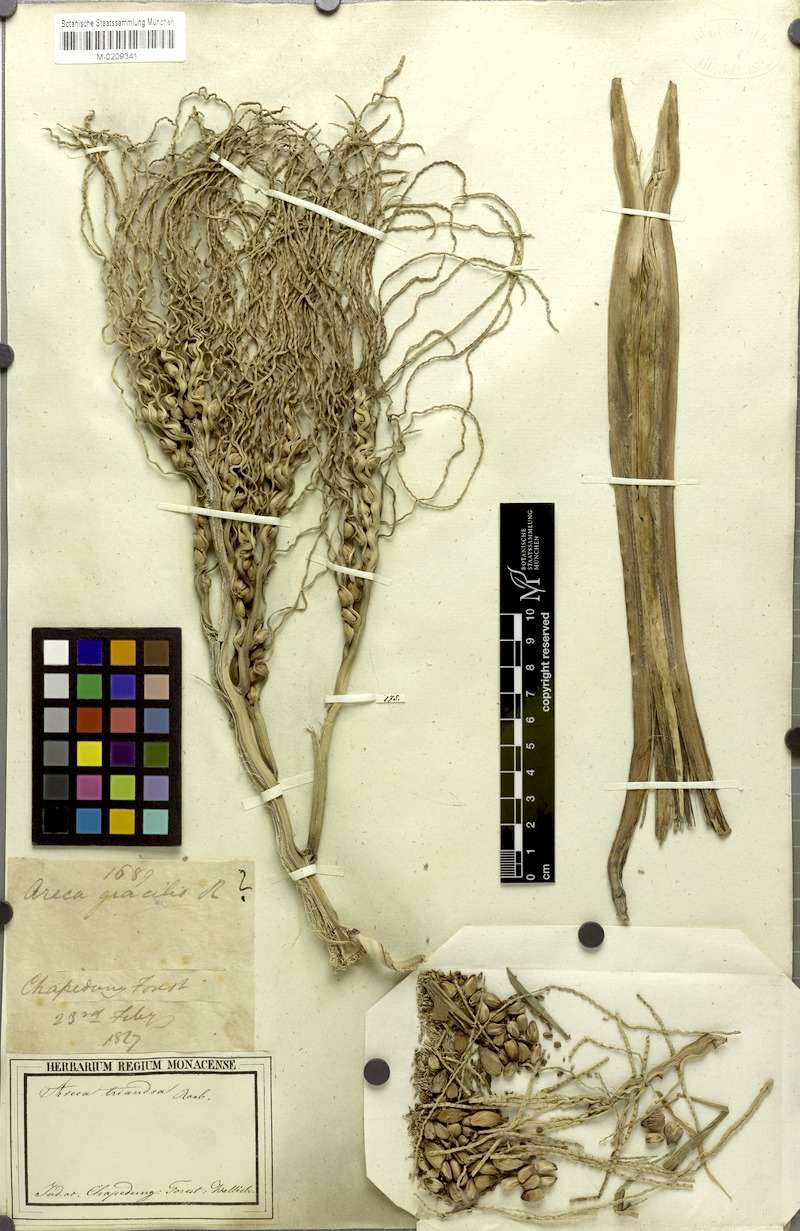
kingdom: Plantae
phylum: Tracheophyta
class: Liliopsida
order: Arecales
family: Arecaceae
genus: Areca
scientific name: Areca triandra
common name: Australian areca palm
